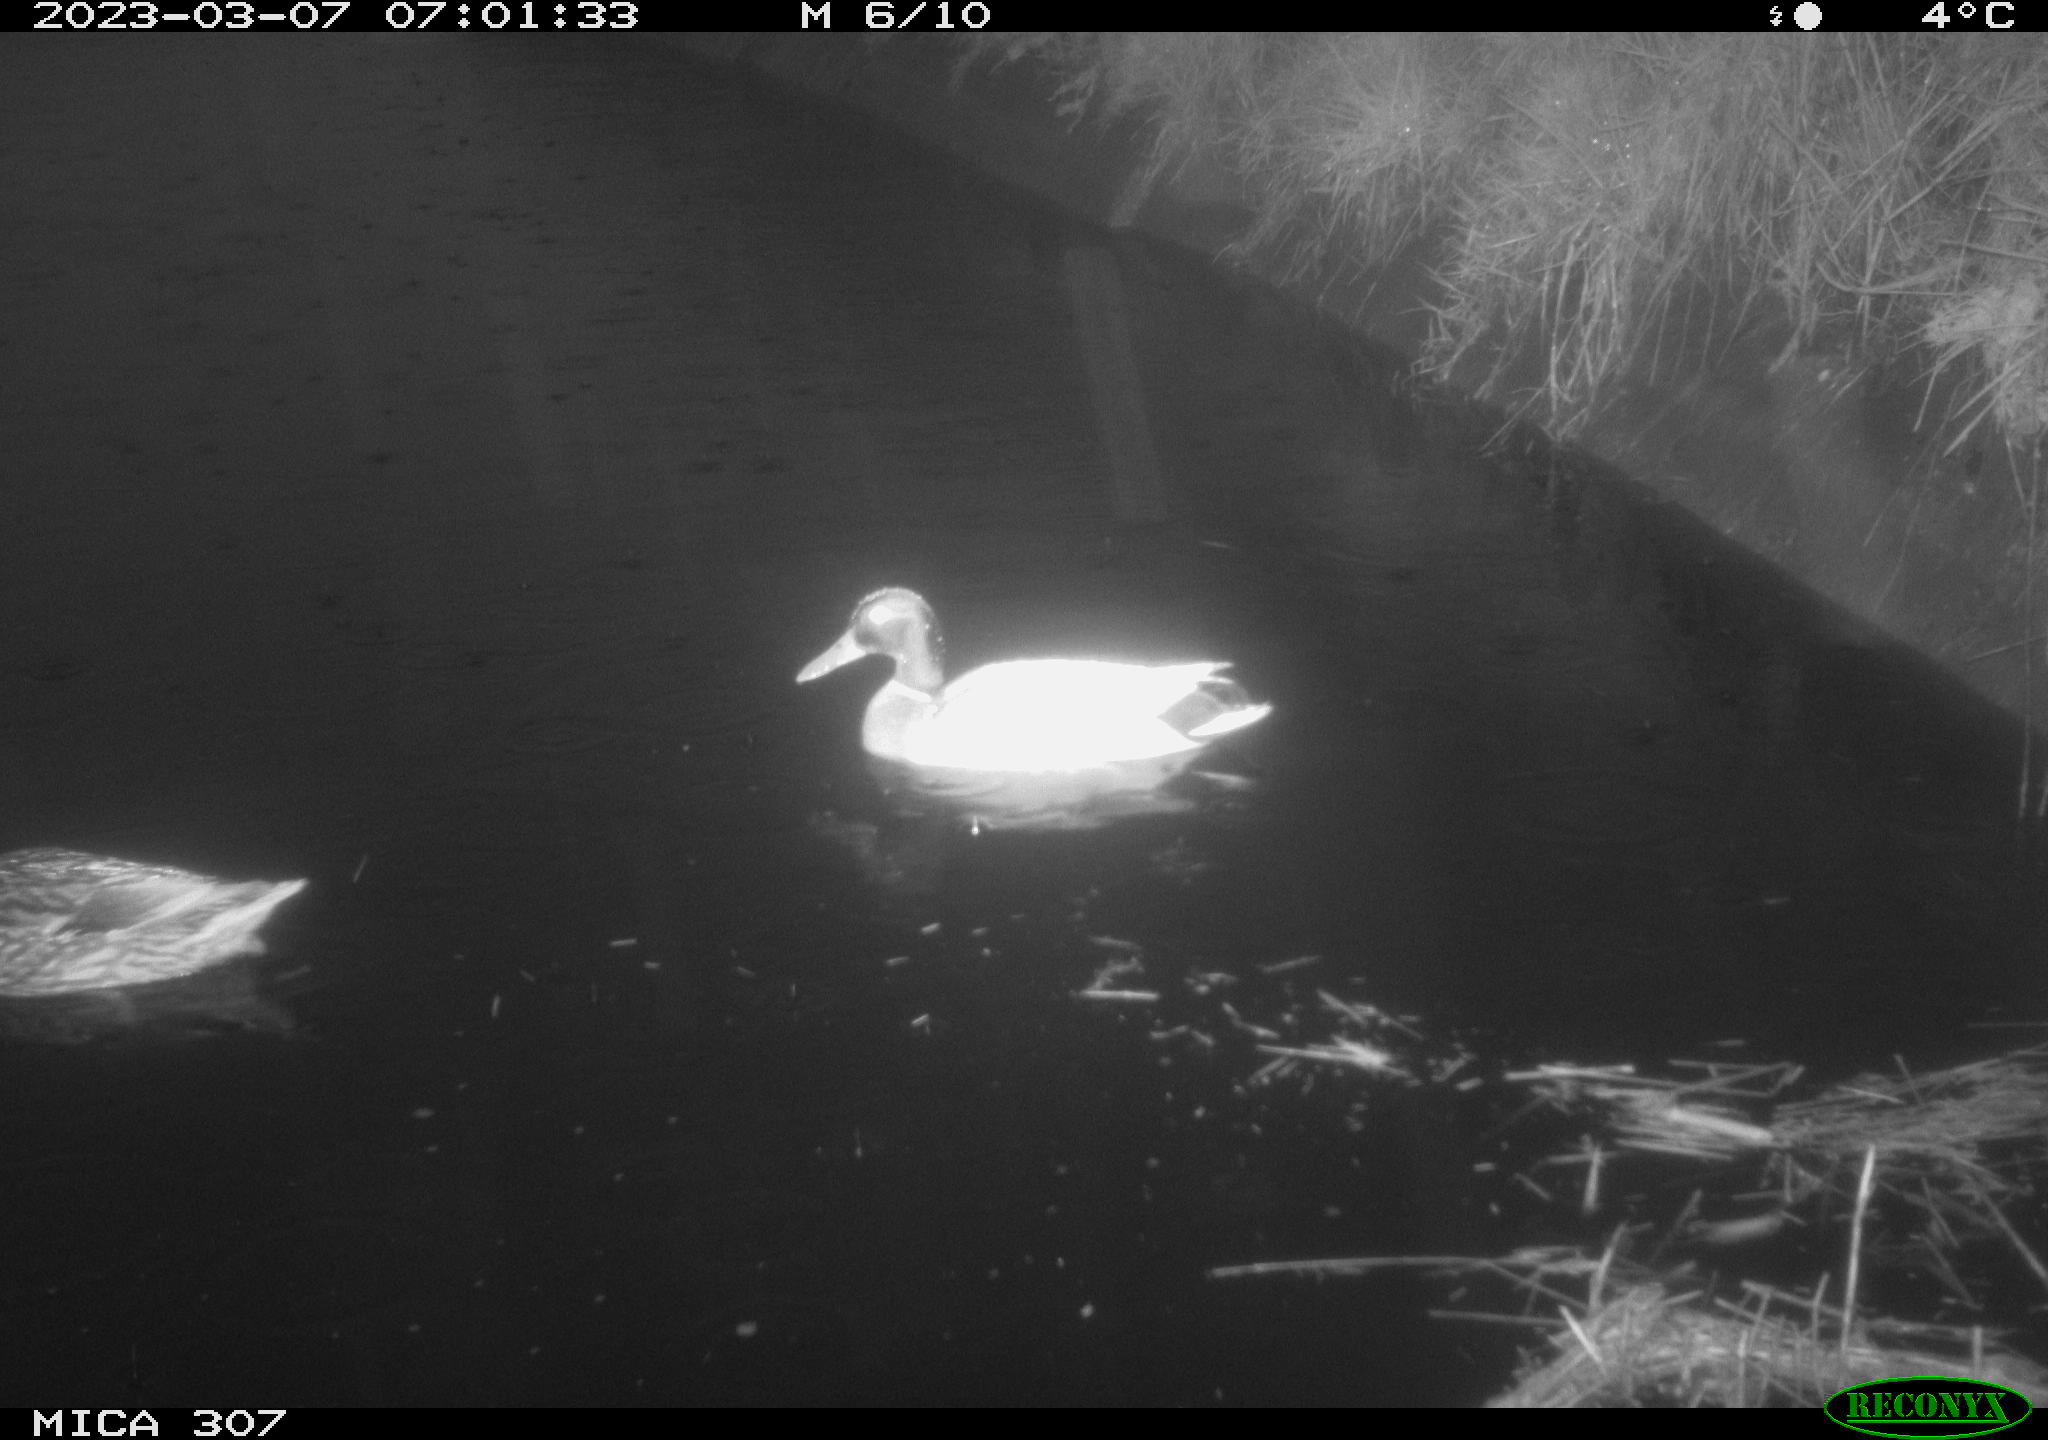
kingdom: Animalia
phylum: Chordata
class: Aves
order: Anseriformes
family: Anatidae
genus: Anas
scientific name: Anas
